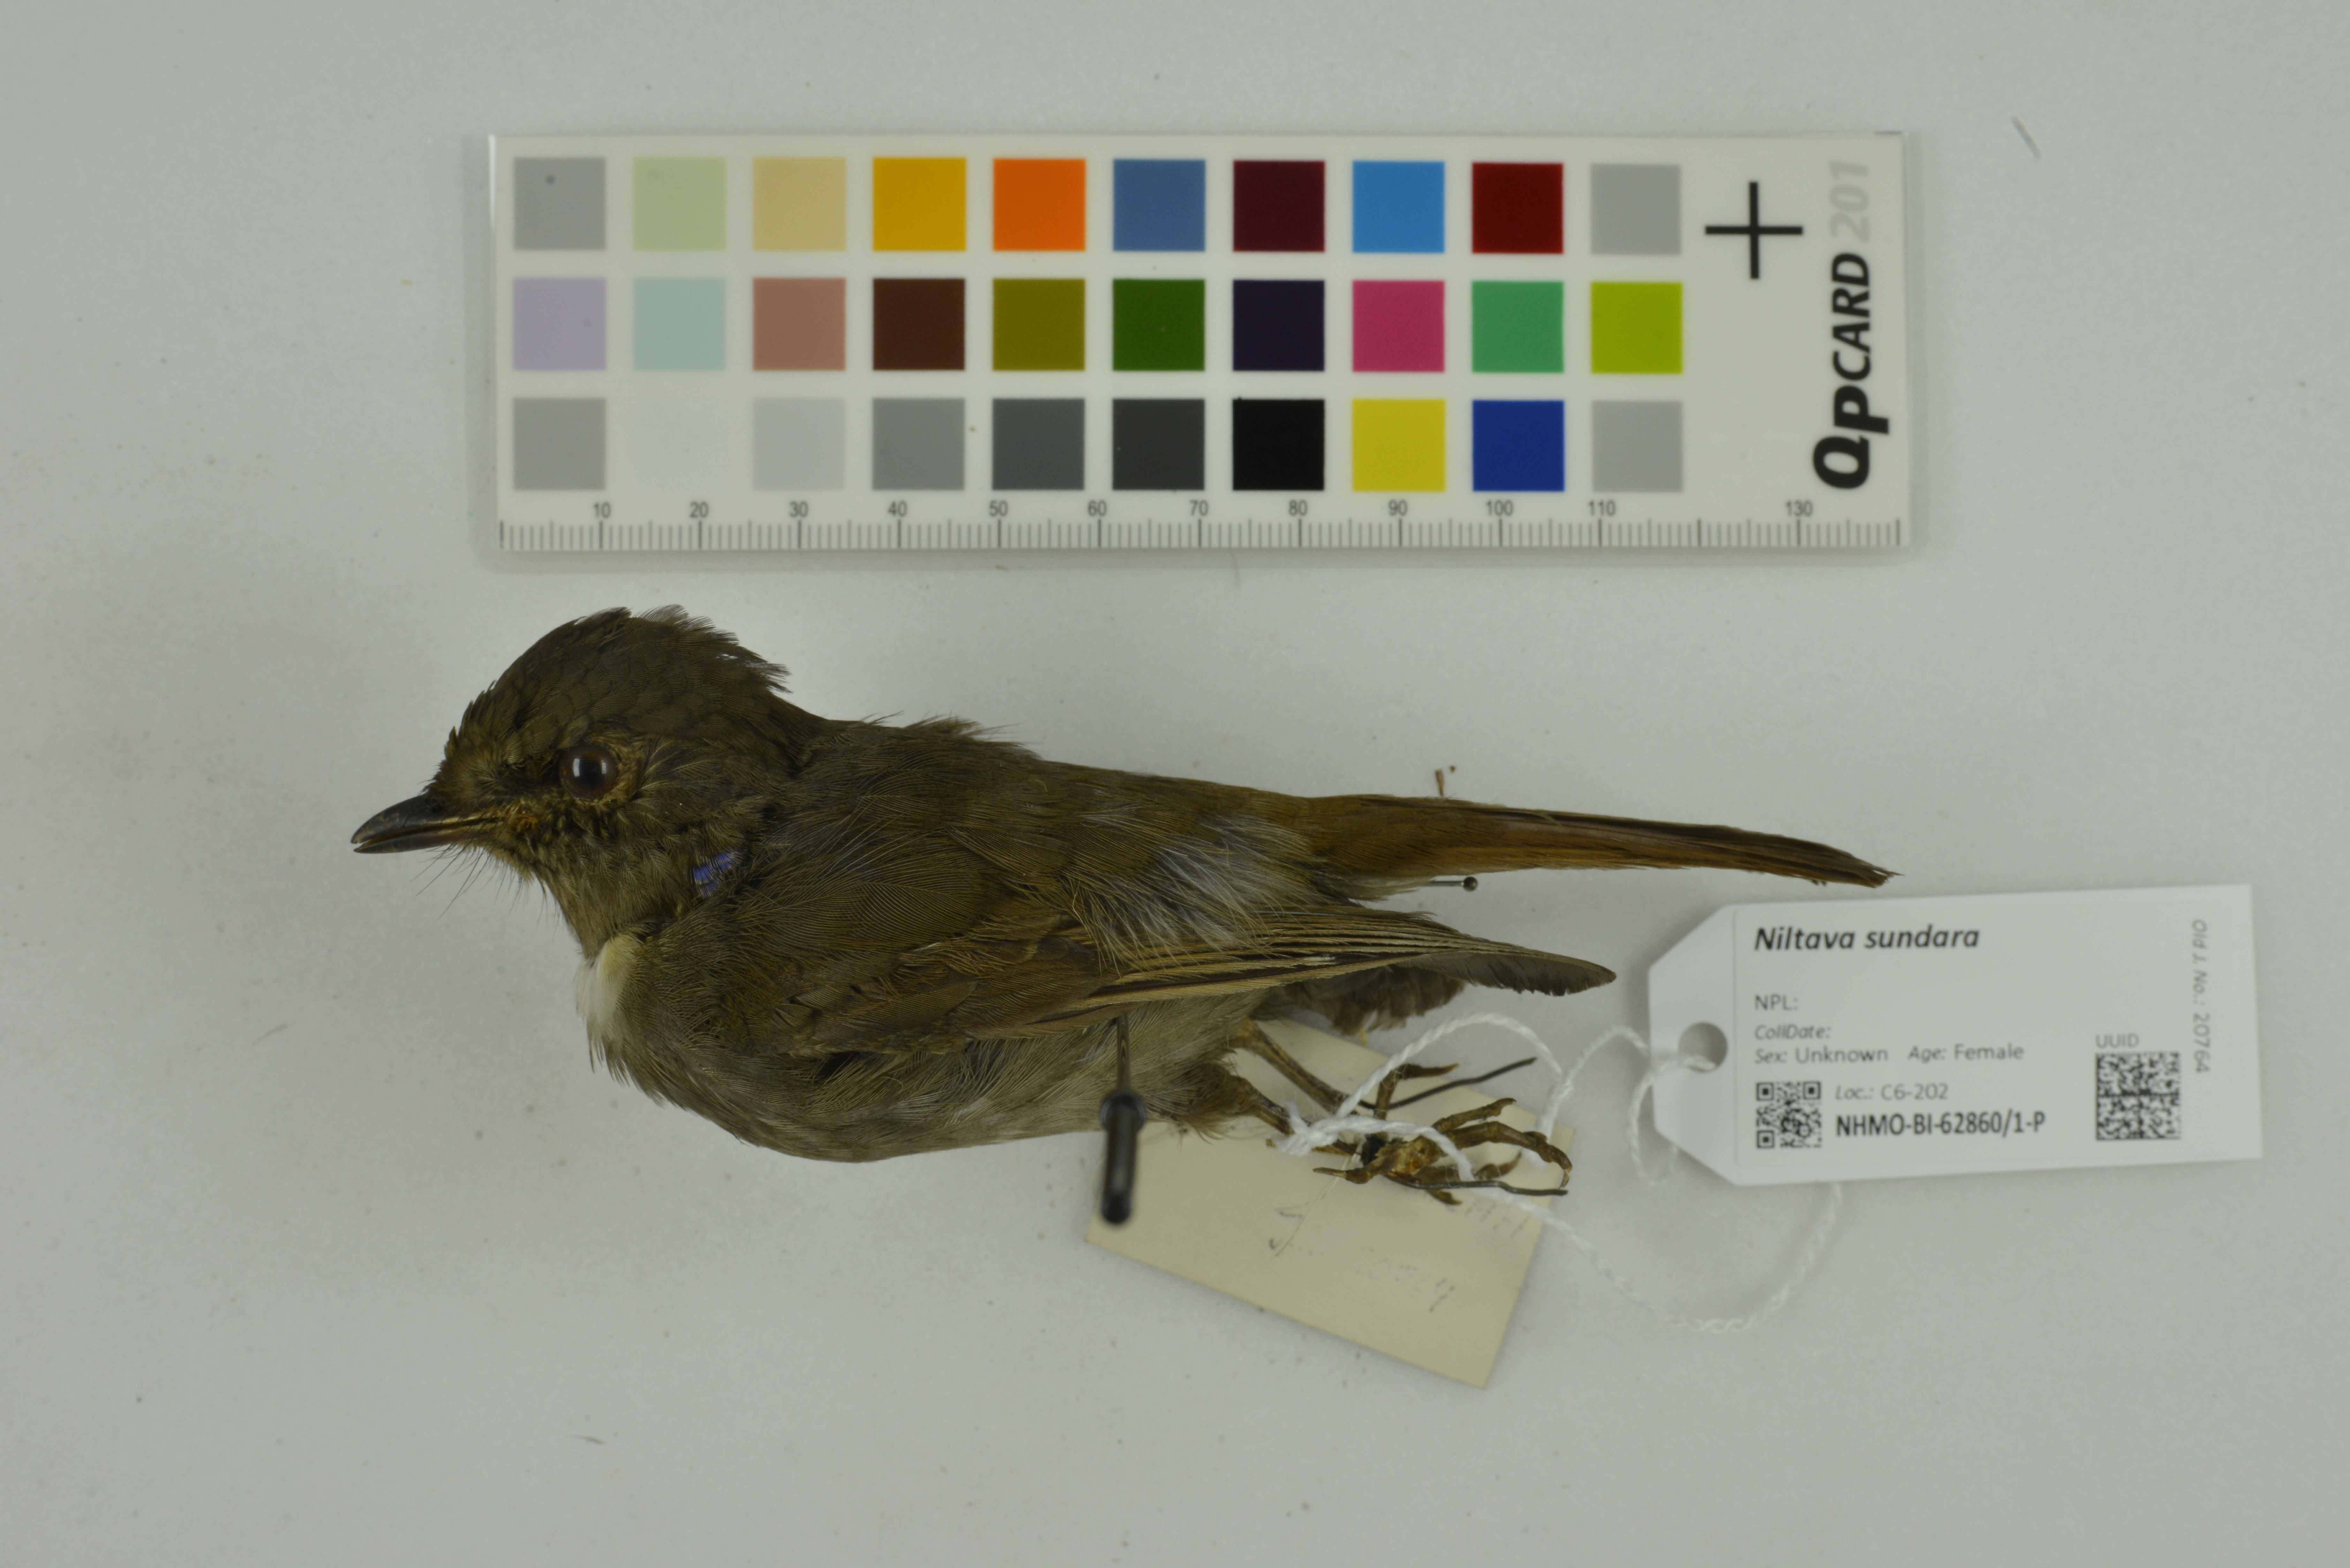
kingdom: Animalia
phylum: Chordata
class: Aves
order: Passeriformes
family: Muscicapidae
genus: Niltava
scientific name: Niltava sundara
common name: Rufous-bellied niltava
